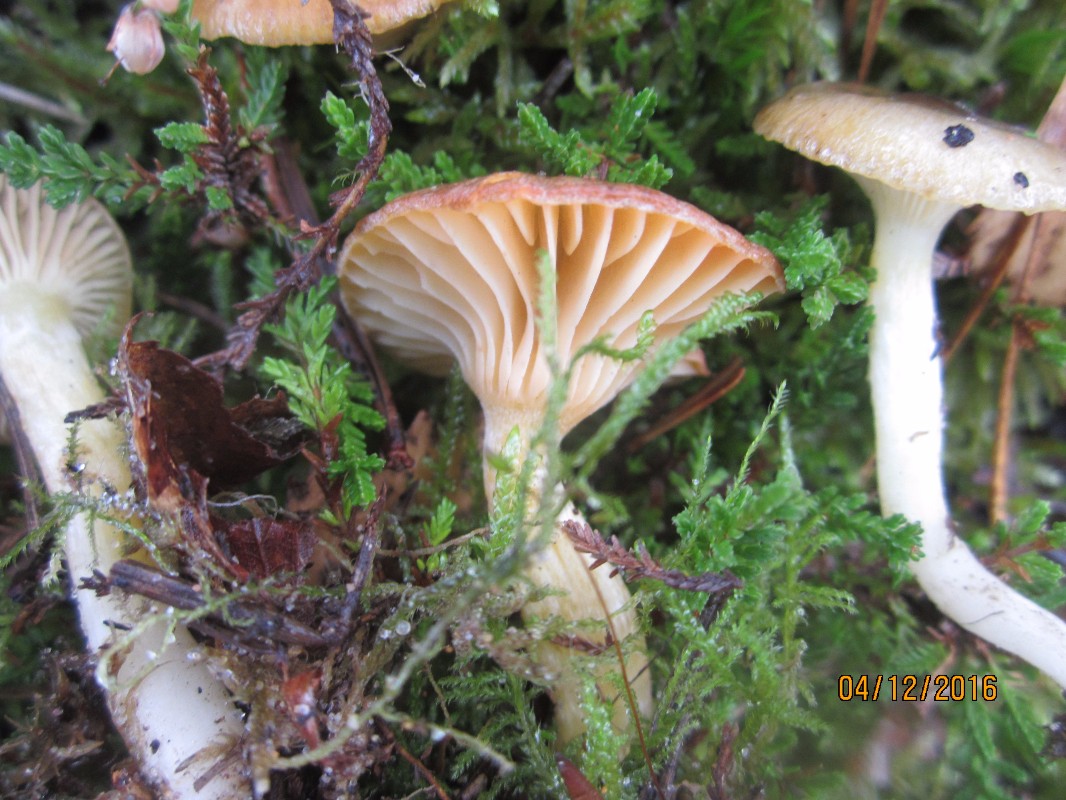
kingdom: Fungi
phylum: Basidiomycota
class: Agaricomycetes
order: Agaricales
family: Hygrophoraceae
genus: Hygrophorus
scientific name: Hygrophorus hypothejus
